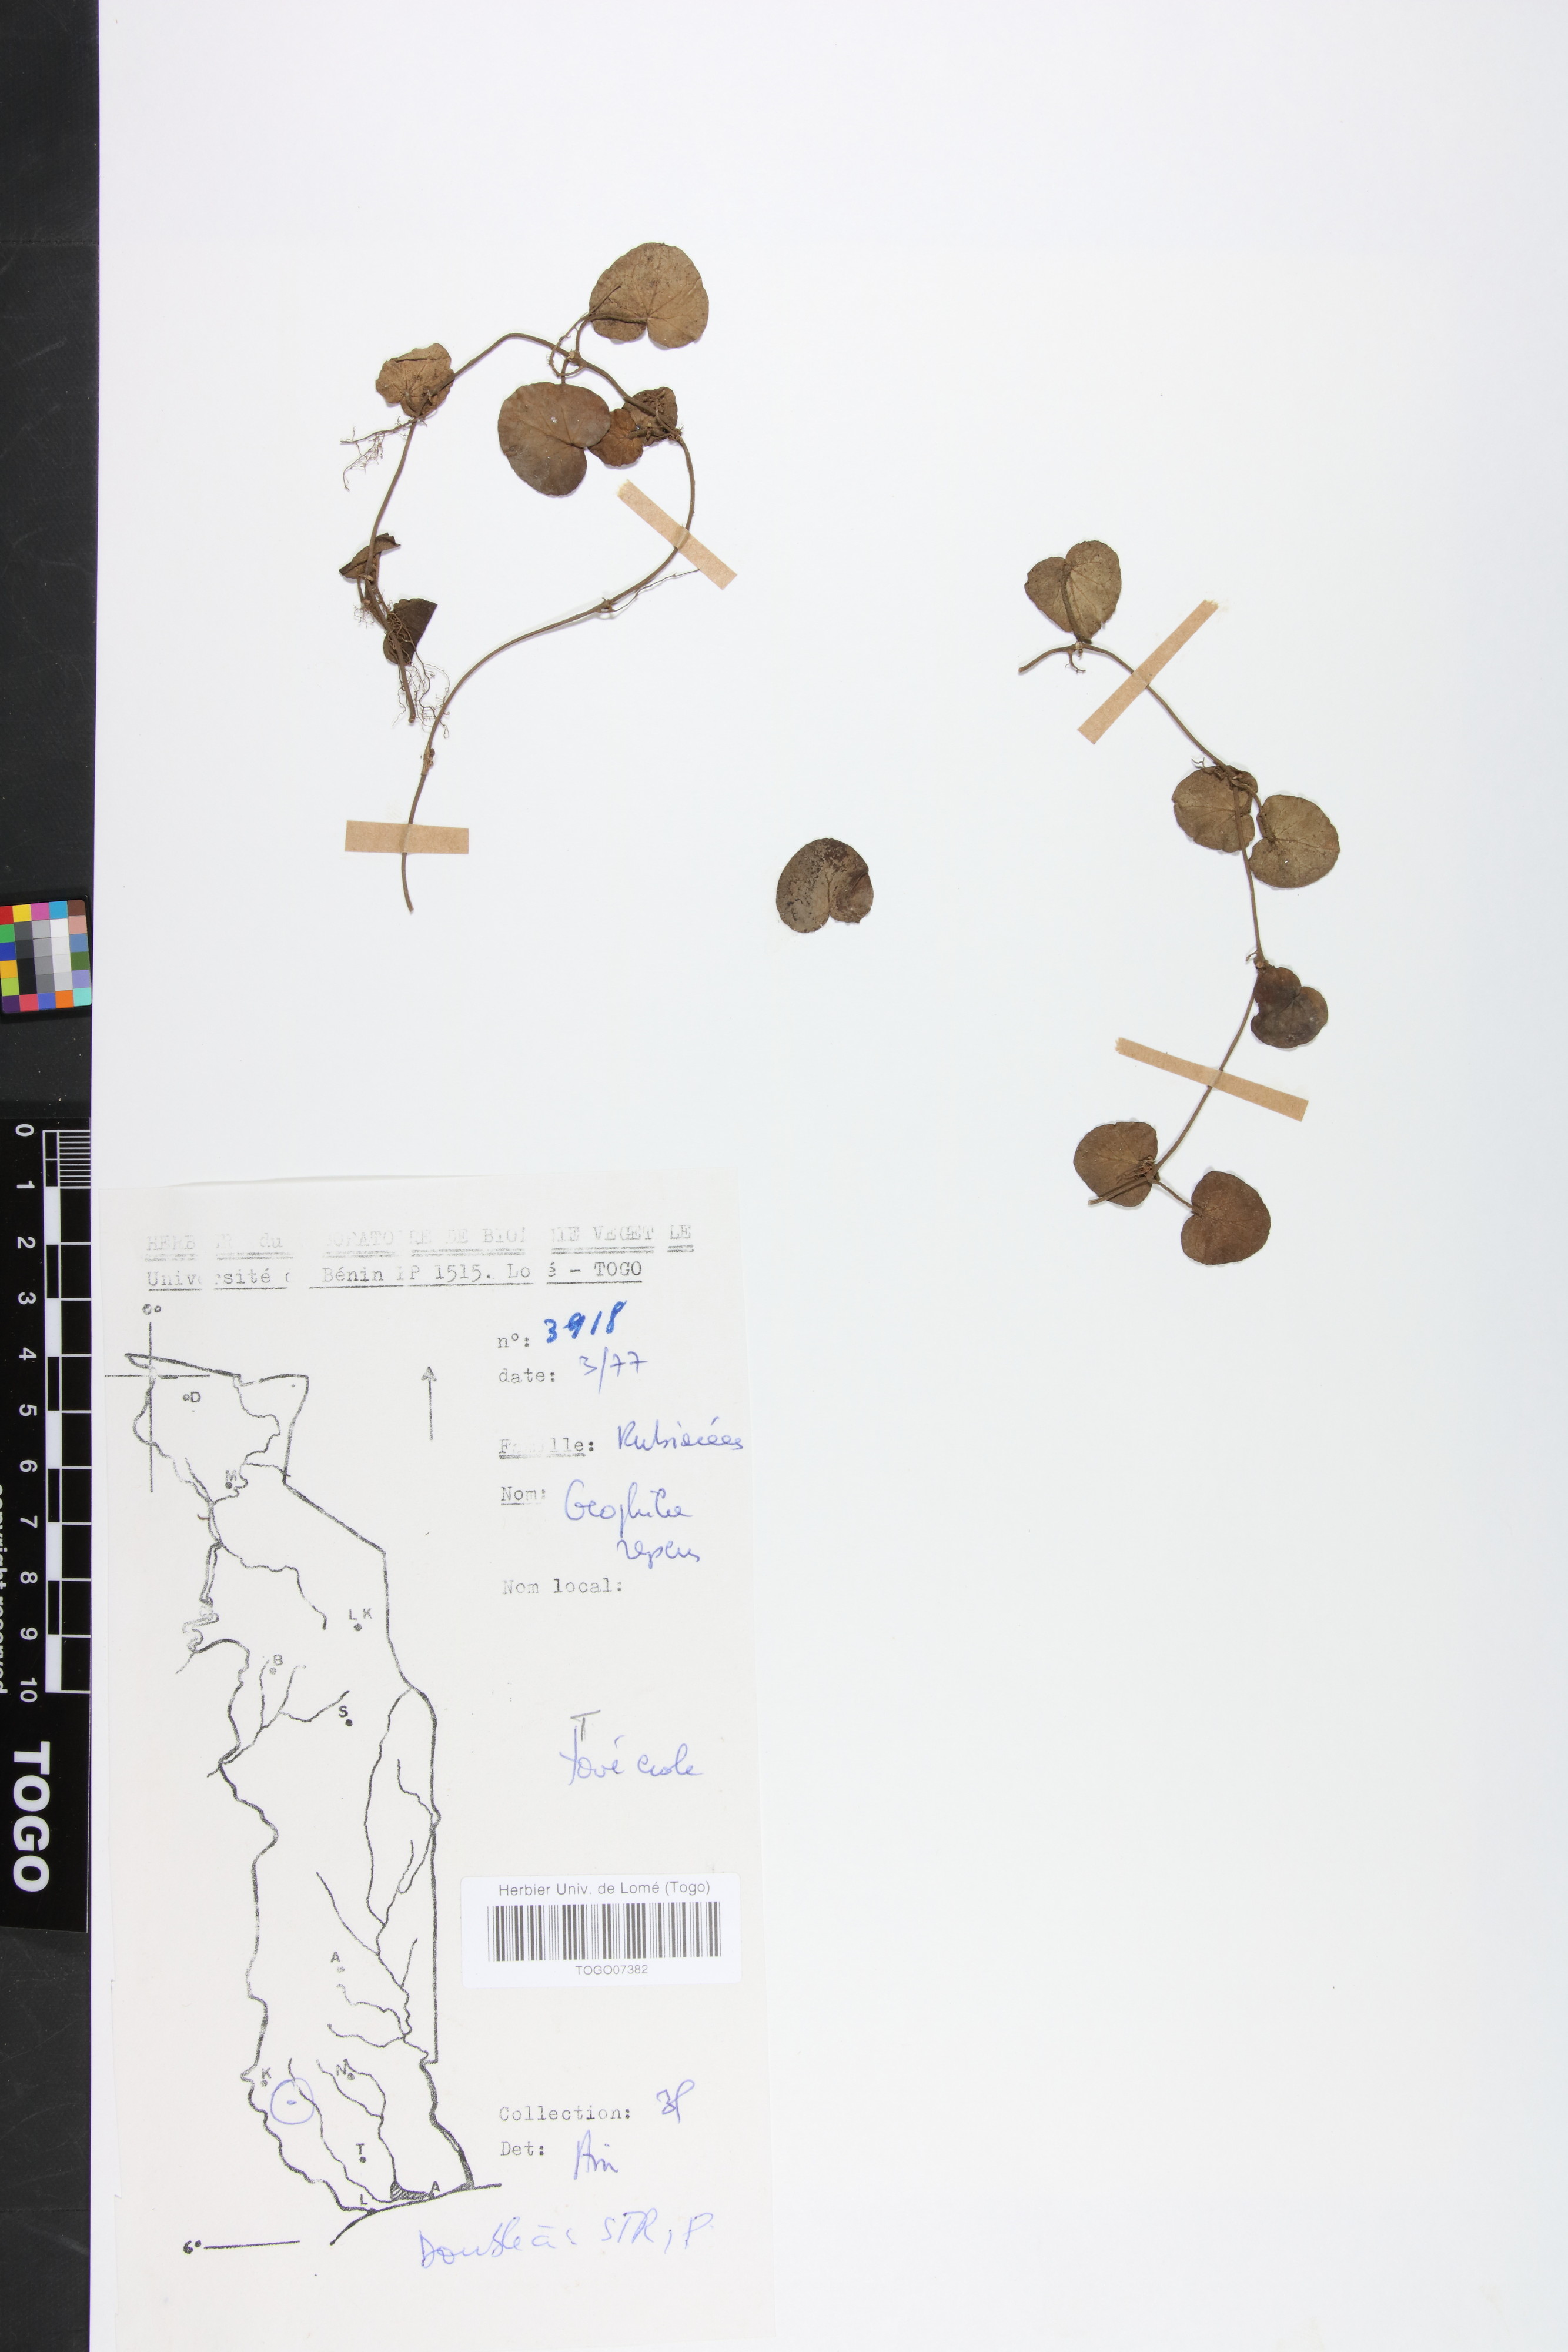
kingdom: Plantae
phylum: Tracheophyta
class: Magnoliopsida
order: Gentianales
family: Rubiaceae
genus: Geophila
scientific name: Geophila repens
